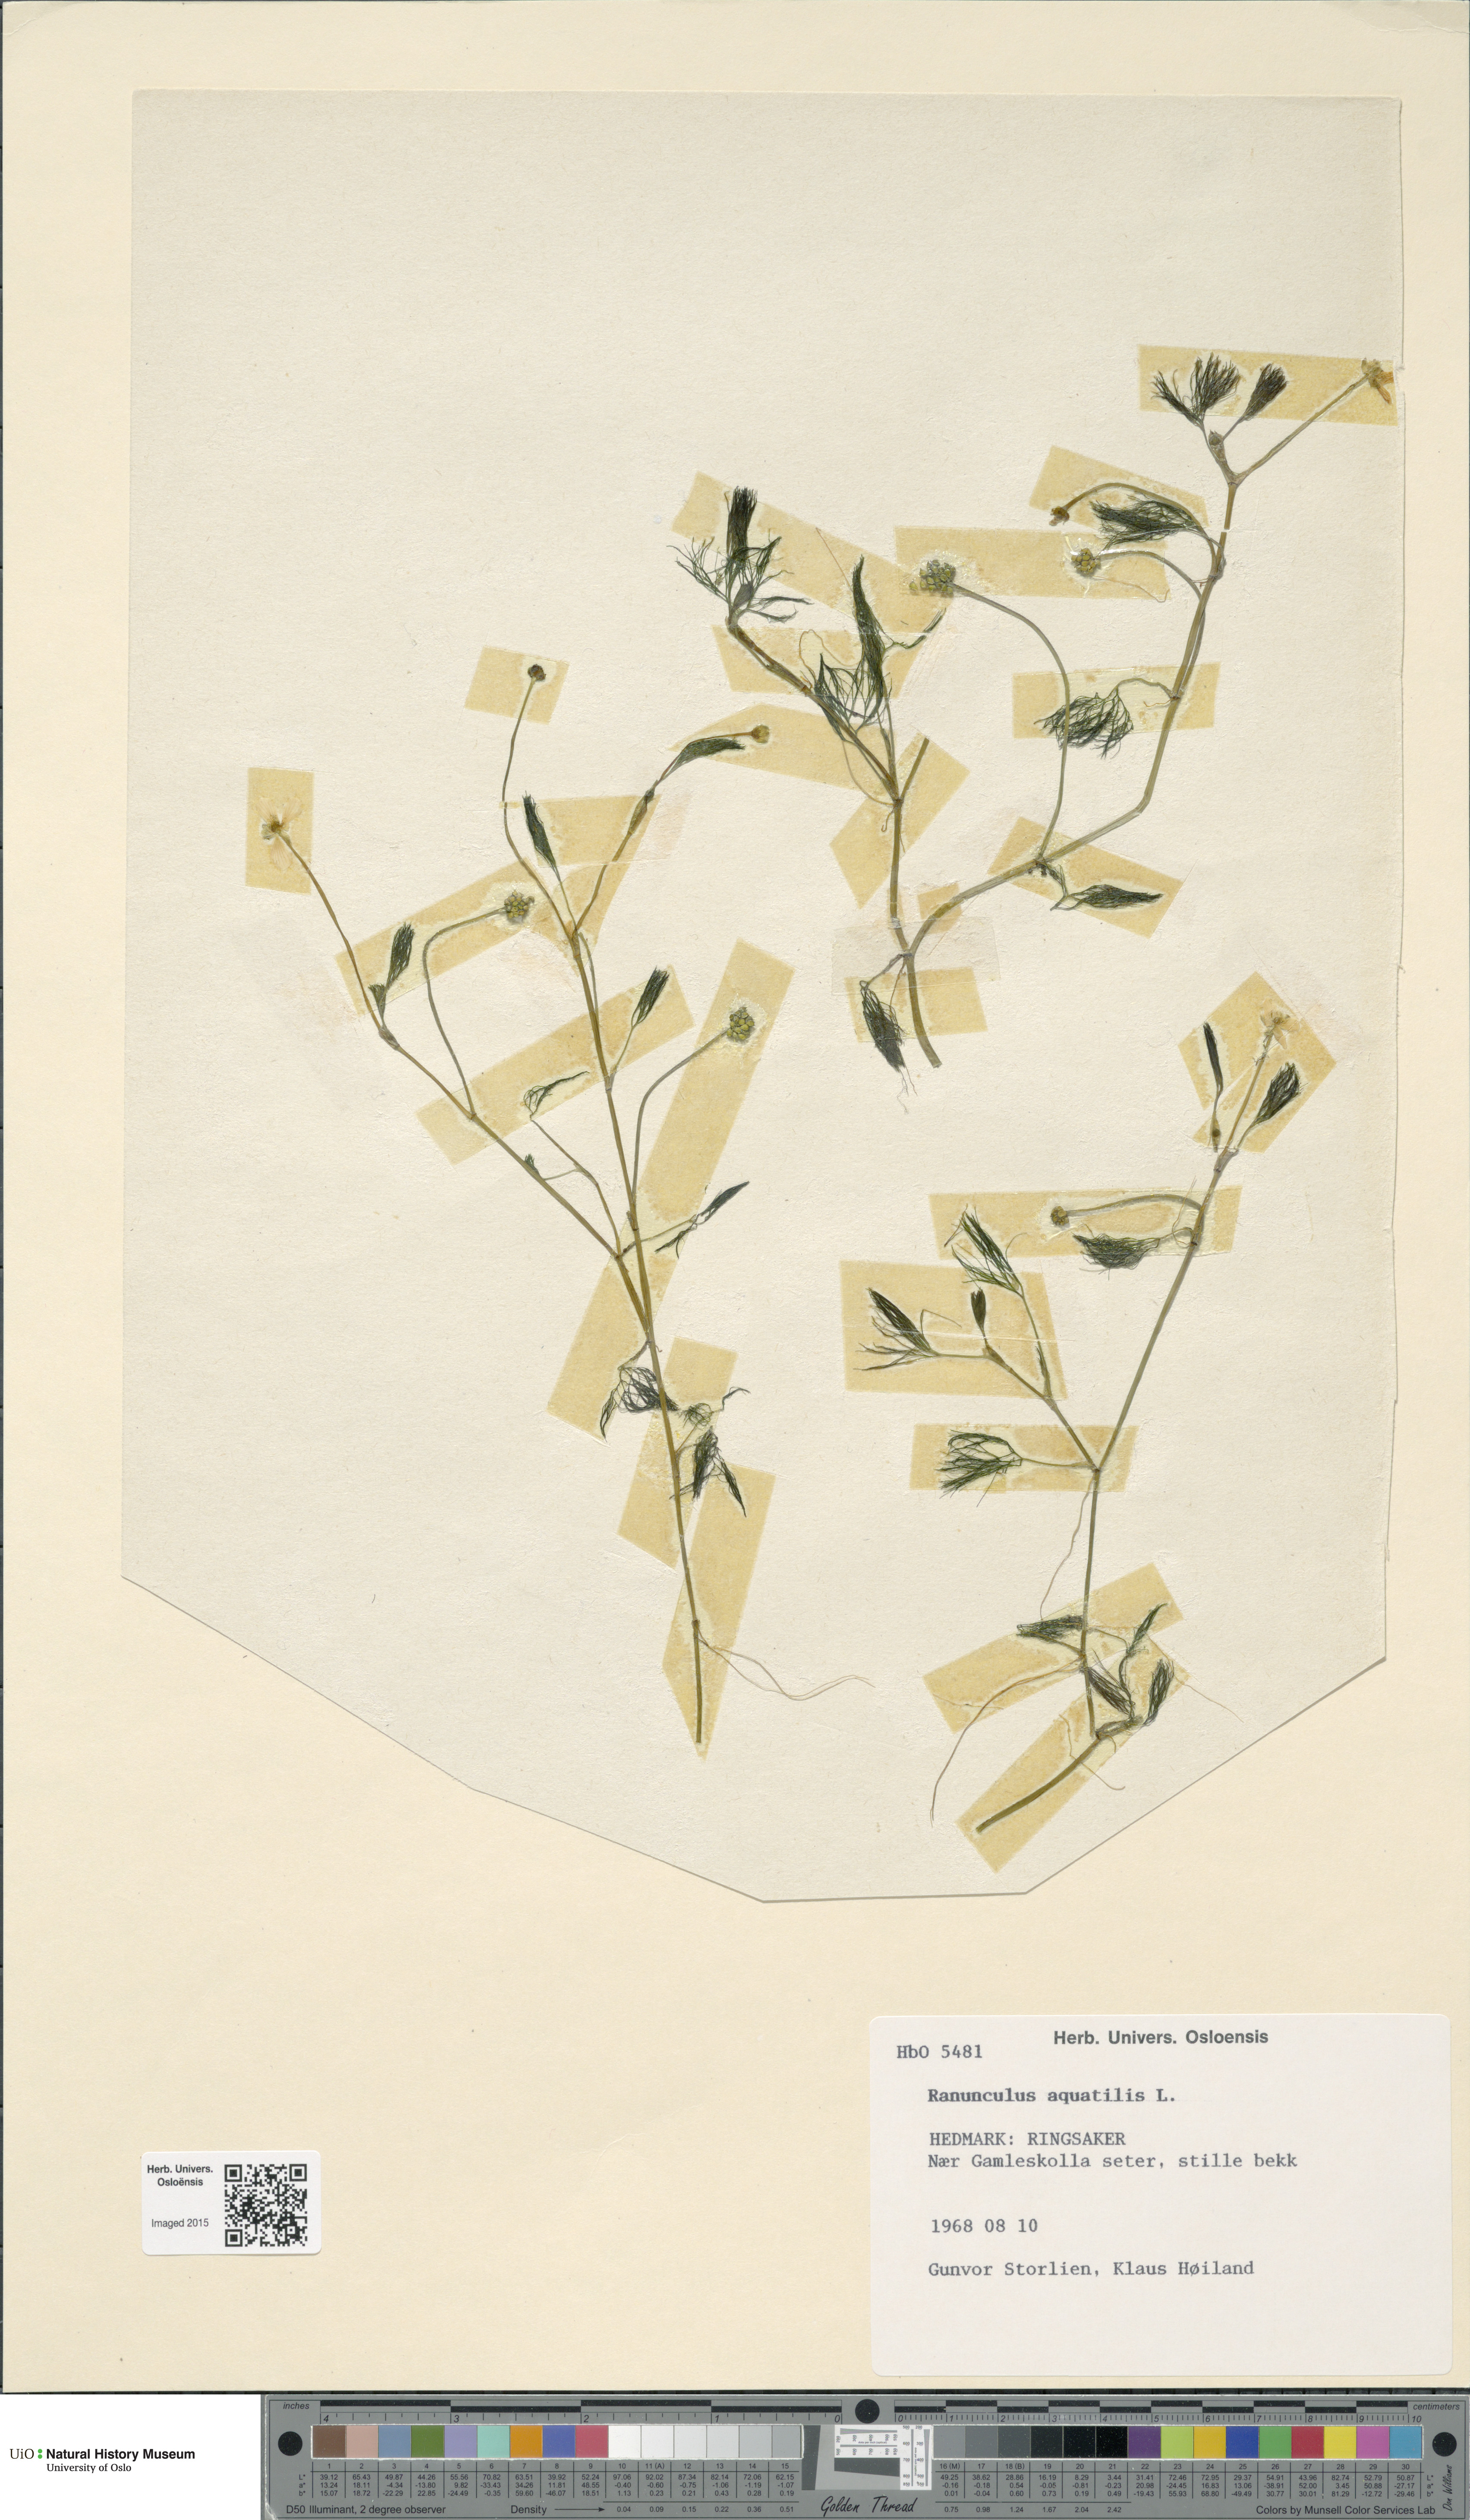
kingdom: Plantae
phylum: Tracheophyta
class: Magnoliopsida
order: Ranunculales
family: Ranunculaceae
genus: Ranunculus
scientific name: Ranunculus aquatilis
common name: Common water-crowfoot
